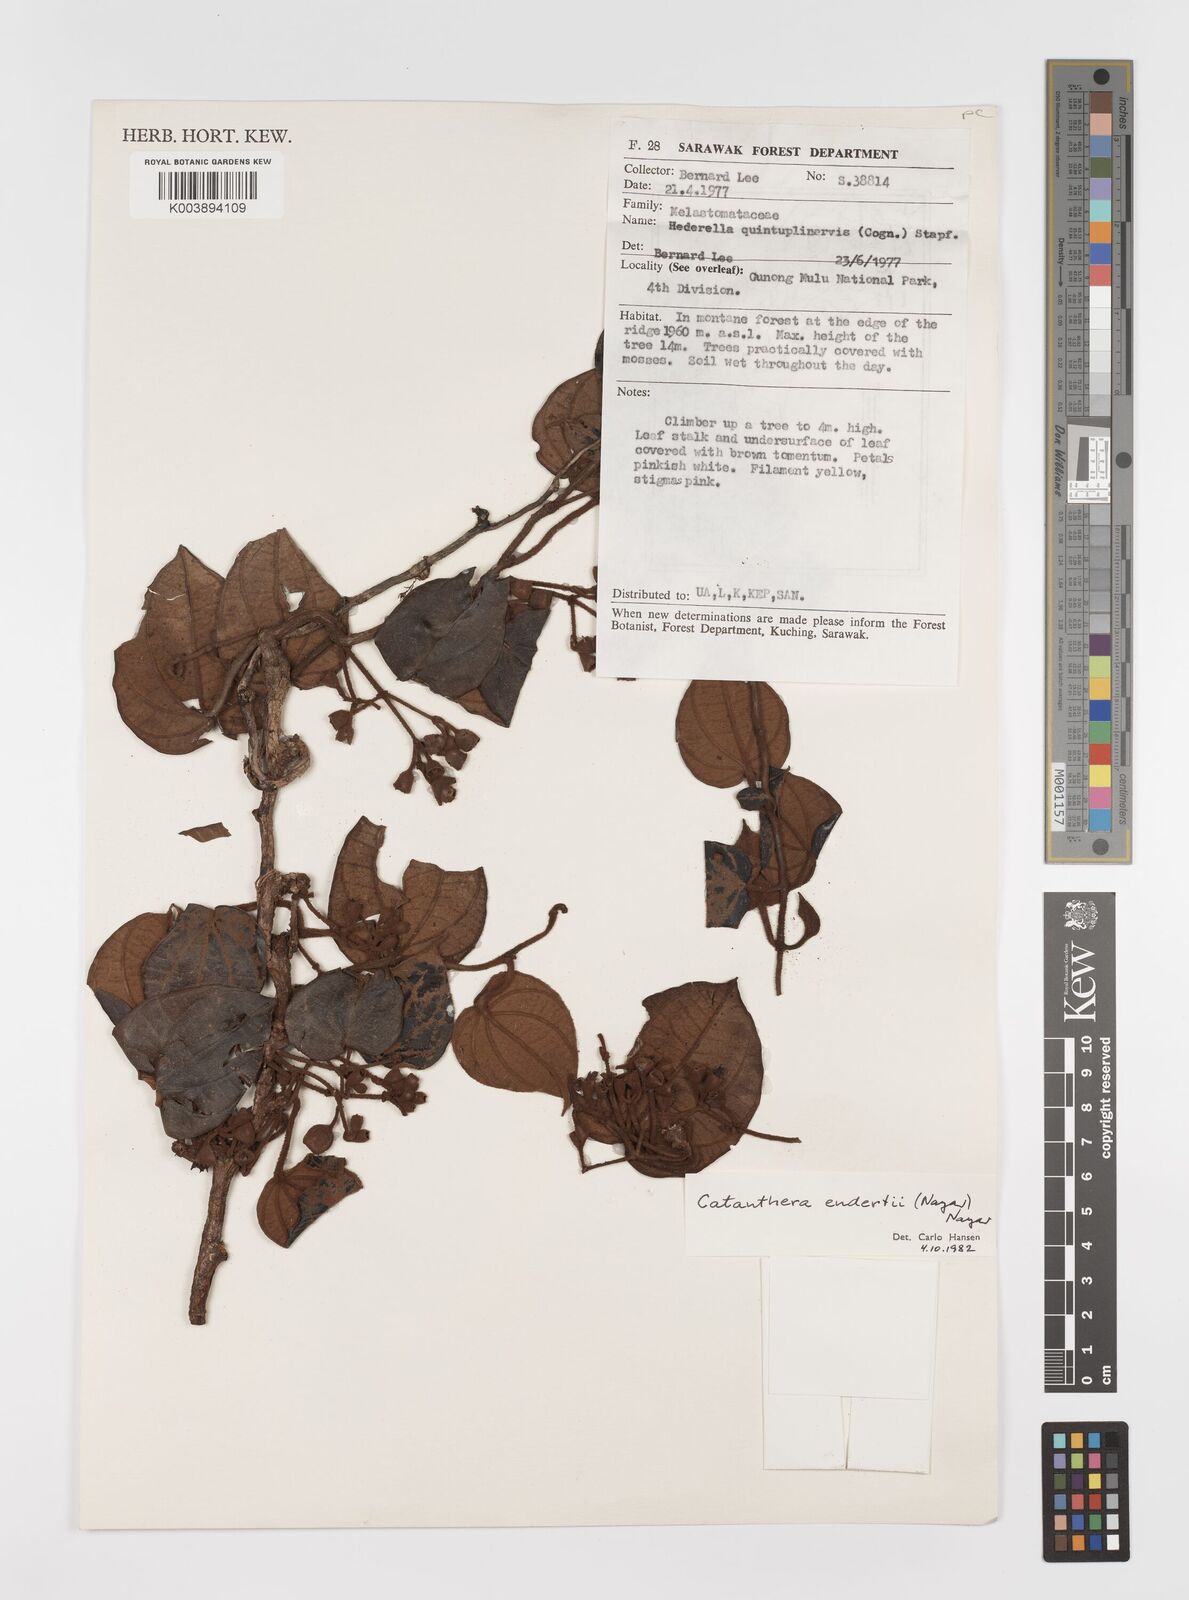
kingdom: Plantae
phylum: Tracheophyta
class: Magnoliopsida
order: Myrtales
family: Melastomataceae
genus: Catanthera
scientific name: Catanthera endertii
